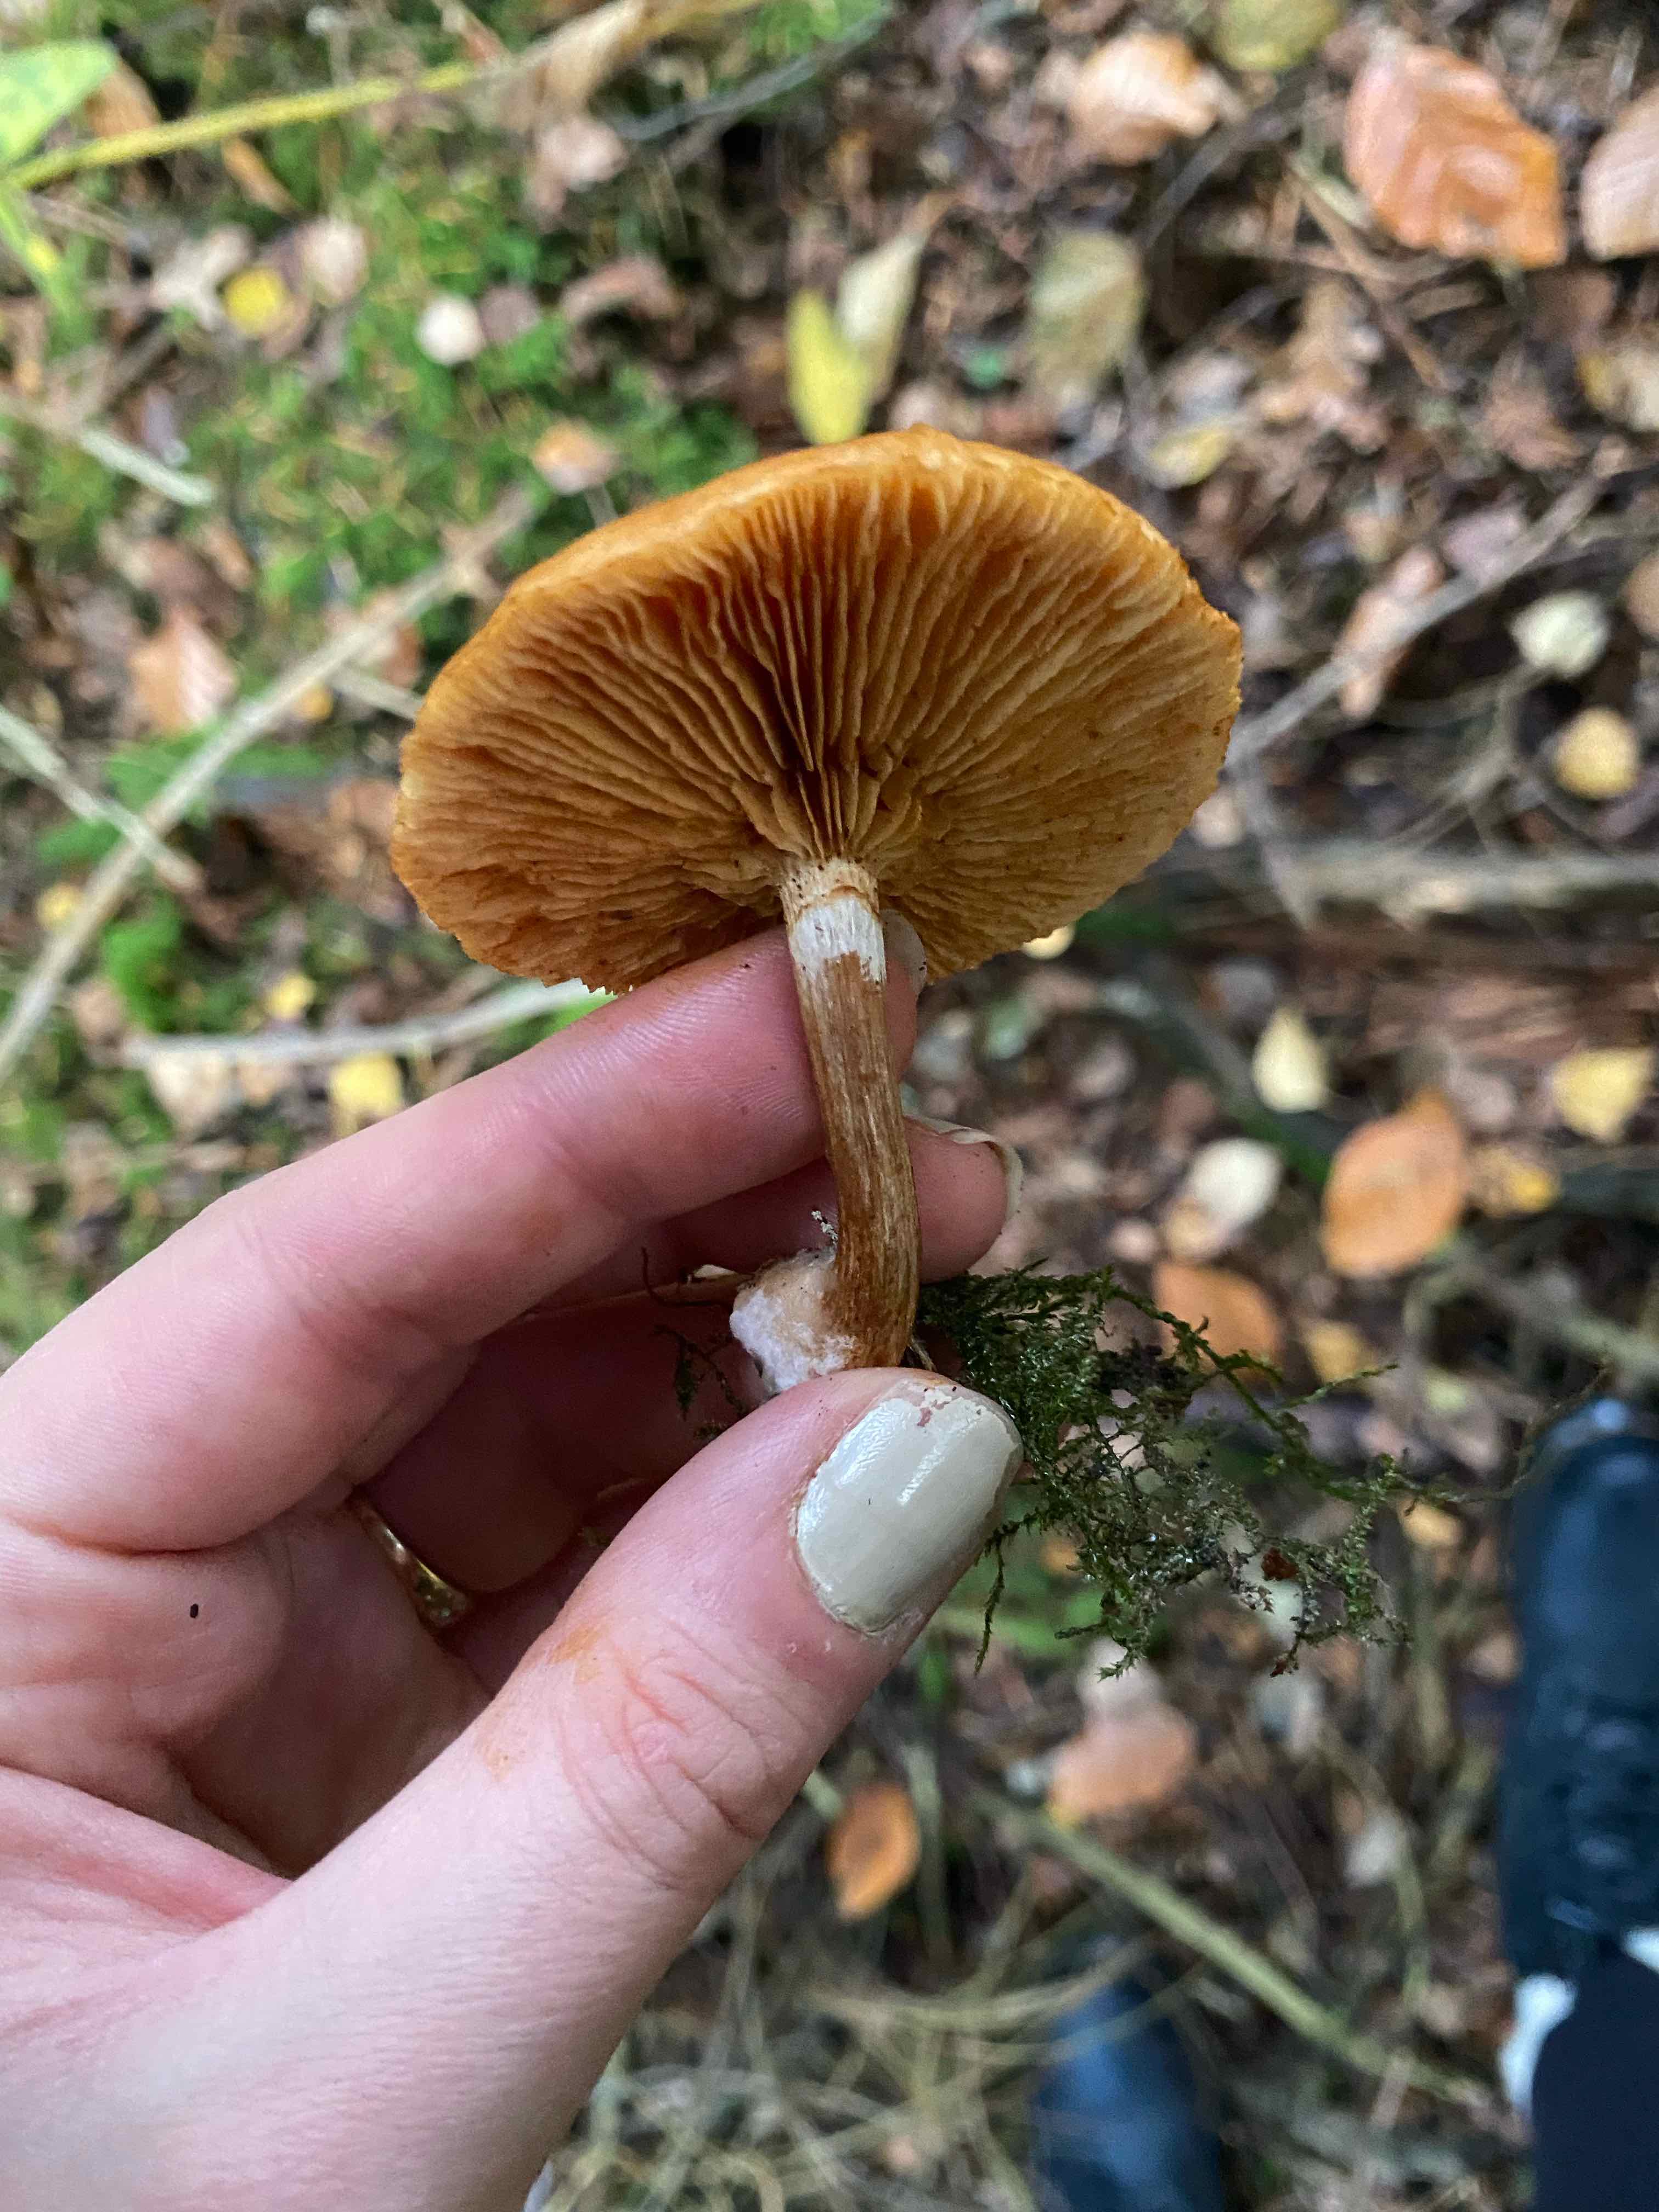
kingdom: Fungi
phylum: Basidiomycota
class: Agaricomycetes
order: Agaricales
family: Hymenogastraceae
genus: Galerina
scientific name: Galerina marginata
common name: randbæltet hjelmhat
